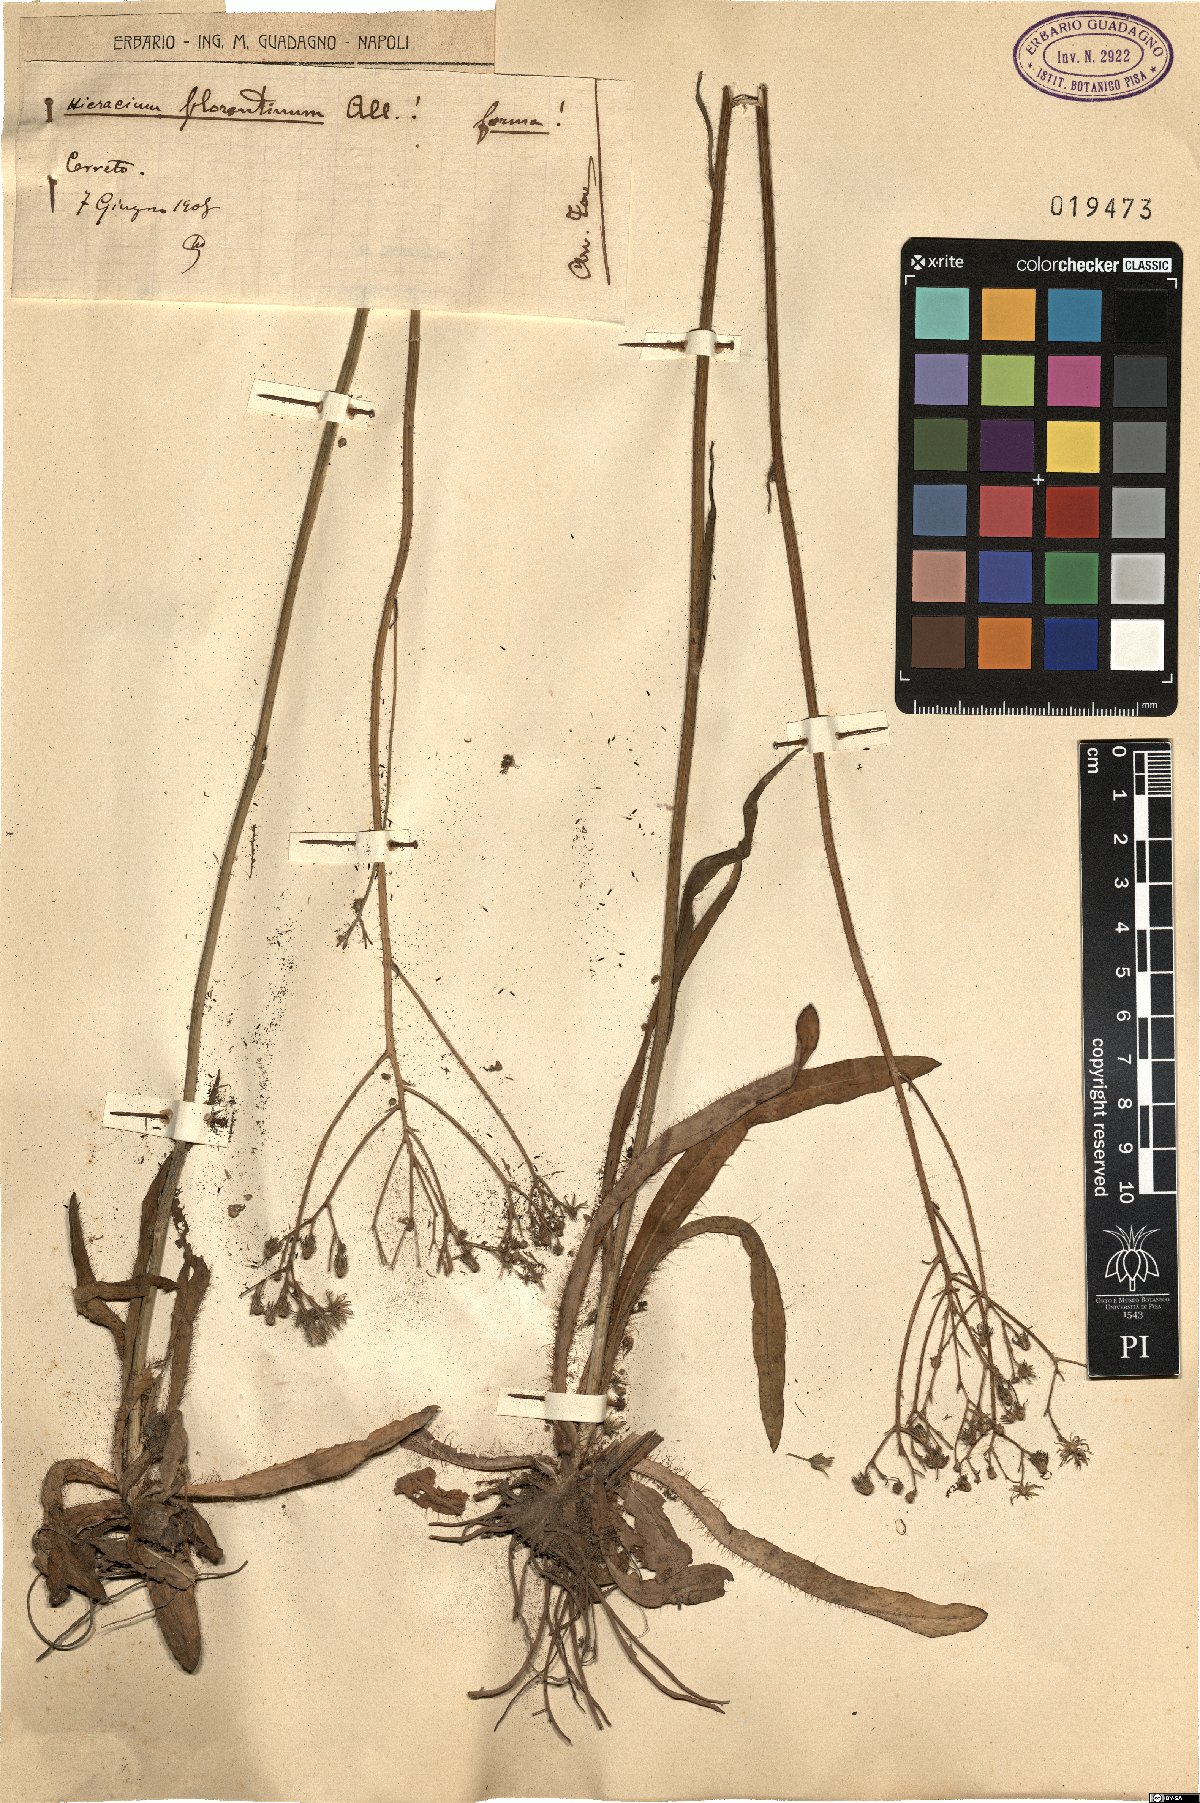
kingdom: Plantae
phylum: Tracheophyta
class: Magnoliopsida
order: Asterales
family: Asteraceae
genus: Pilosella
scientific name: Pilosella piloselloides
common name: Glaucous king-devil
